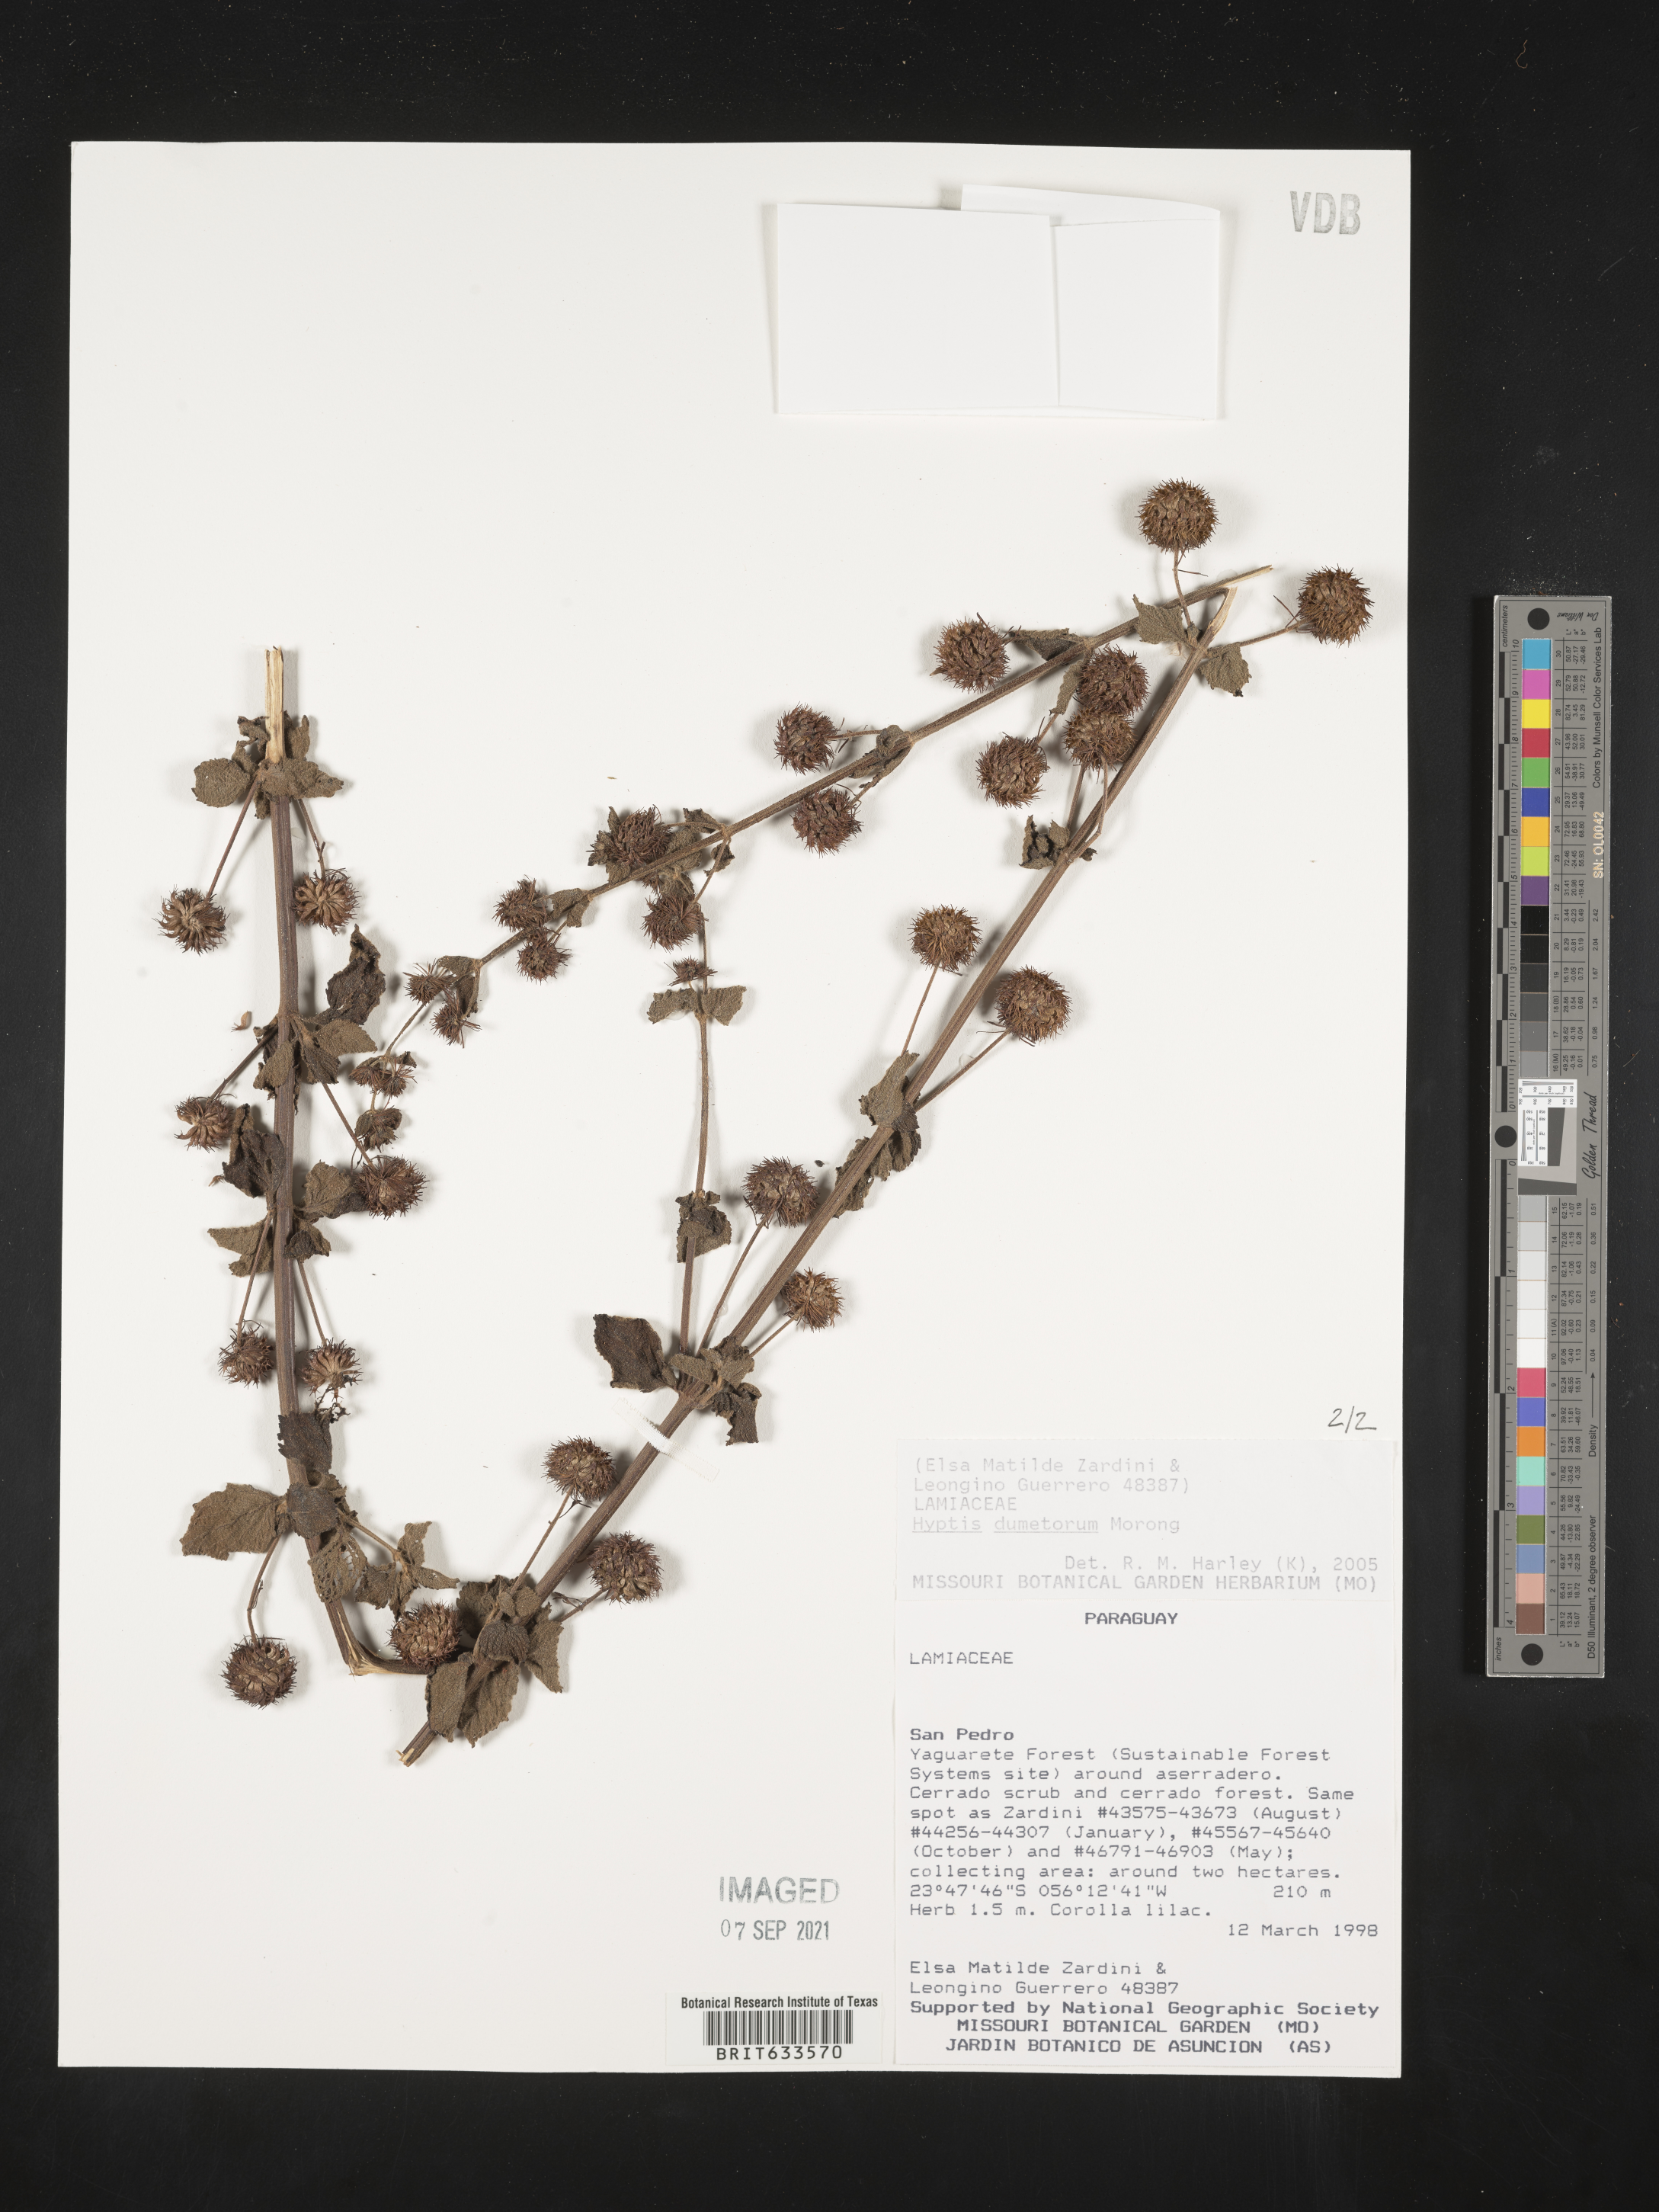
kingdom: Plantae
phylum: Tracheophyta
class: Magnoliopsida
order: Lamiales
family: Lamiaceae
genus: Hyptis
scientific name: Hyptis
